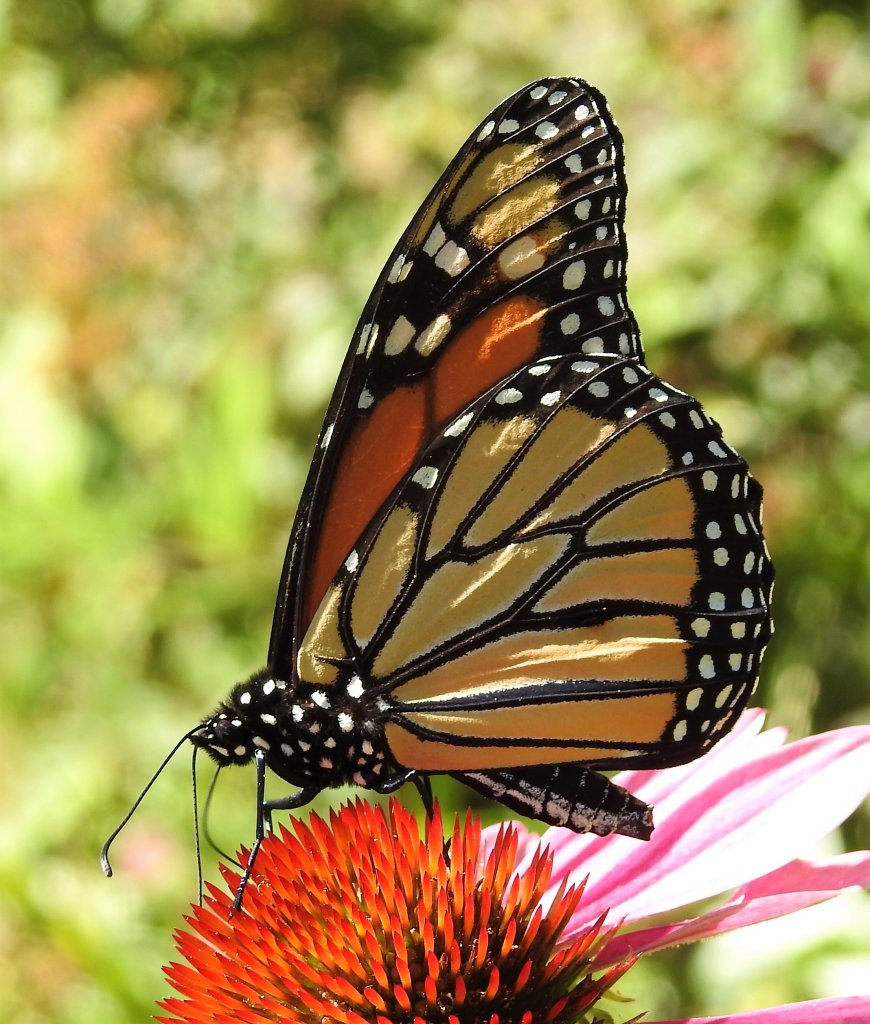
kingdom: Animalia
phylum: Arthropoda
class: Insecta
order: Lepidoptera
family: Nymphalidae
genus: Danaus
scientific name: Danaus plexippus
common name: Monarch
